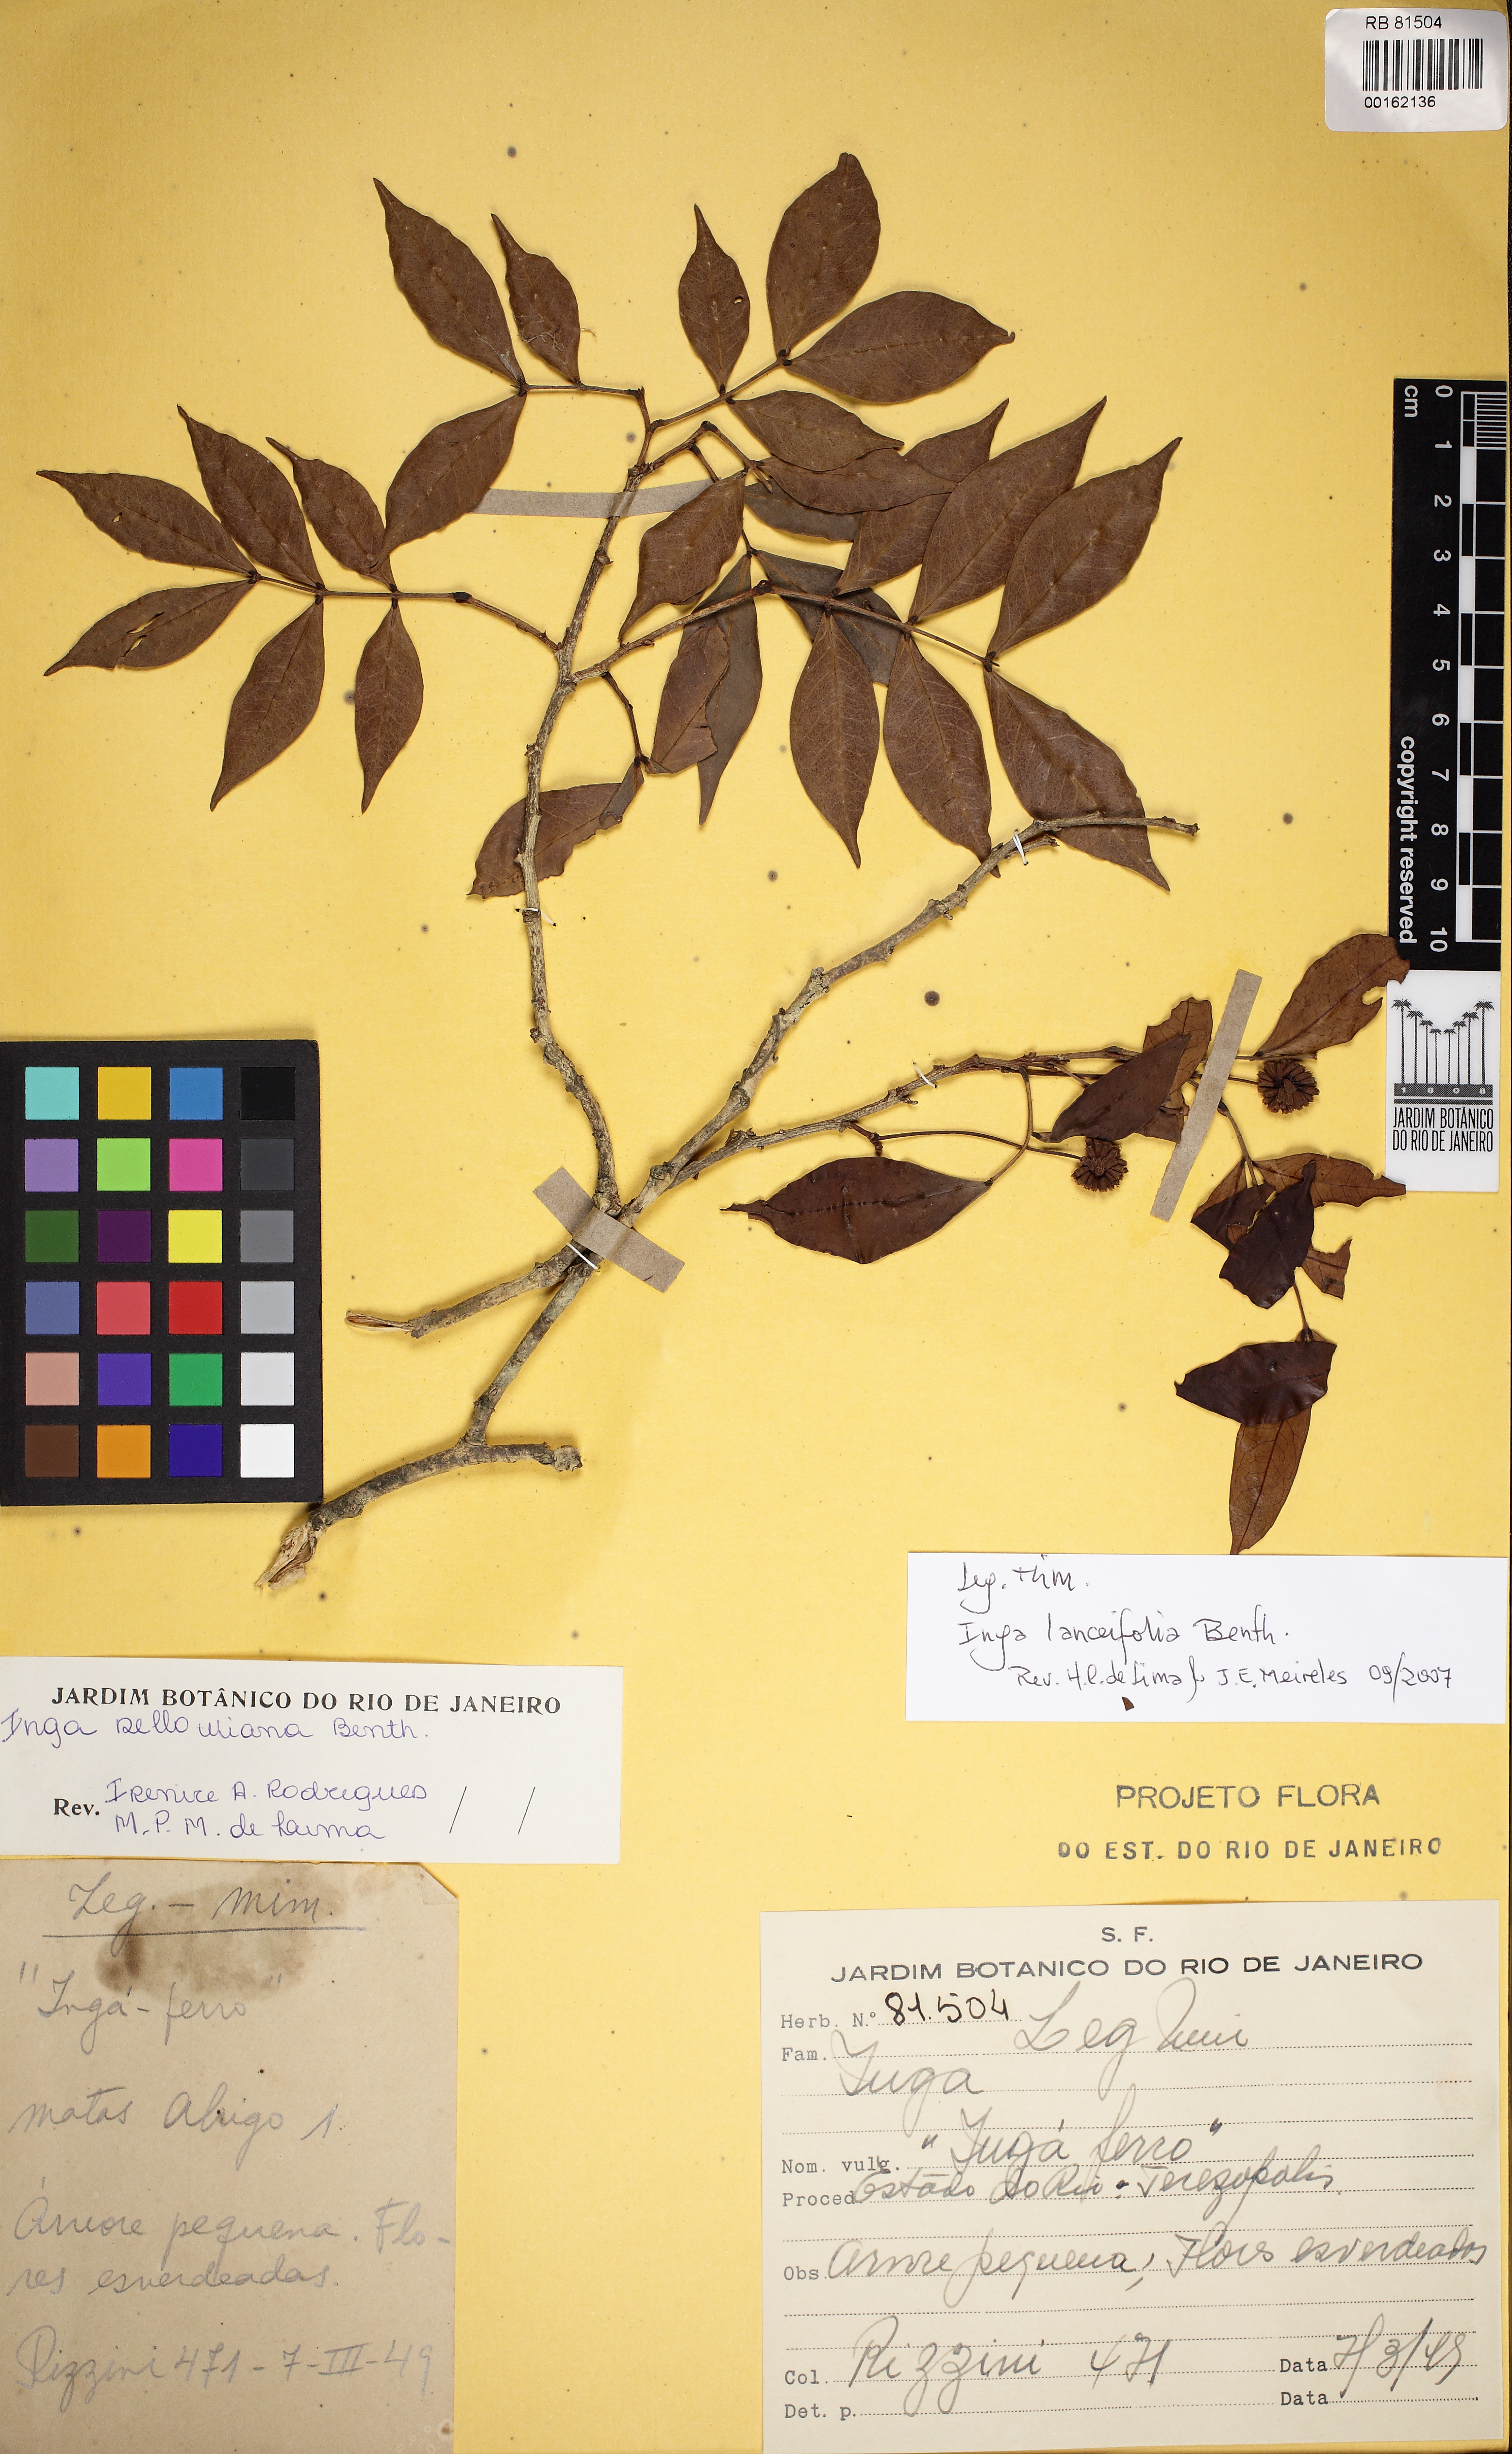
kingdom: Plantae
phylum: Tracheophyta
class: Magnoliopsida
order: Fabales
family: Fabaceae
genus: Inga
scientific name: Inga lanceifolia
